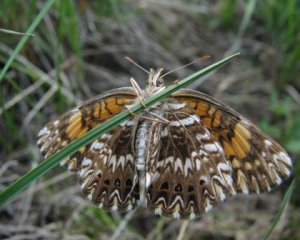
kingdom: Animalia
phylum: Arthropoda
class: Insecta
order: Lepidoptera
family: Nymphalidae
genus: Chlosyne
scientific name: Chlosyne gorgone
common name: Gorgone Checkerspot
